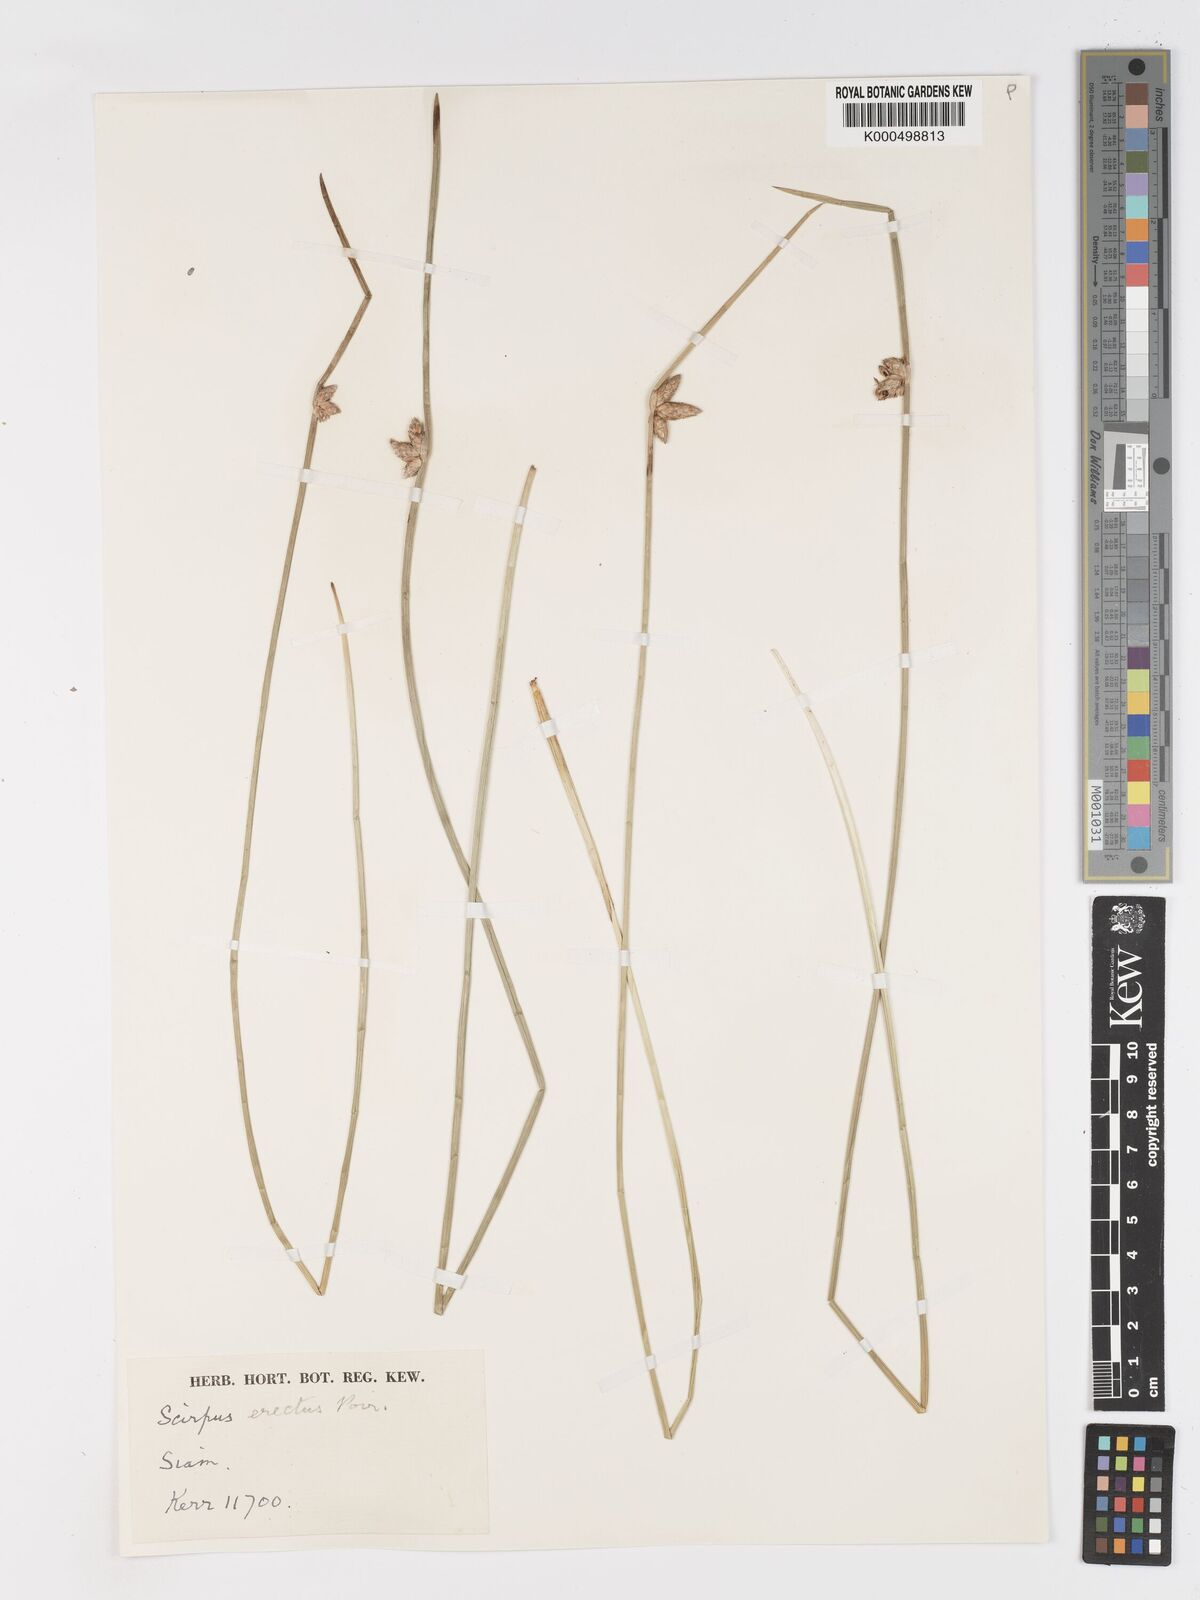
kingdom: Plantae
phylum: Tracheophyta
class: Liliopsida
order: Poales
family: Cyperaceae
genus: Schoenoplectiella
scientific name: Schoenoplectiella juncoides
